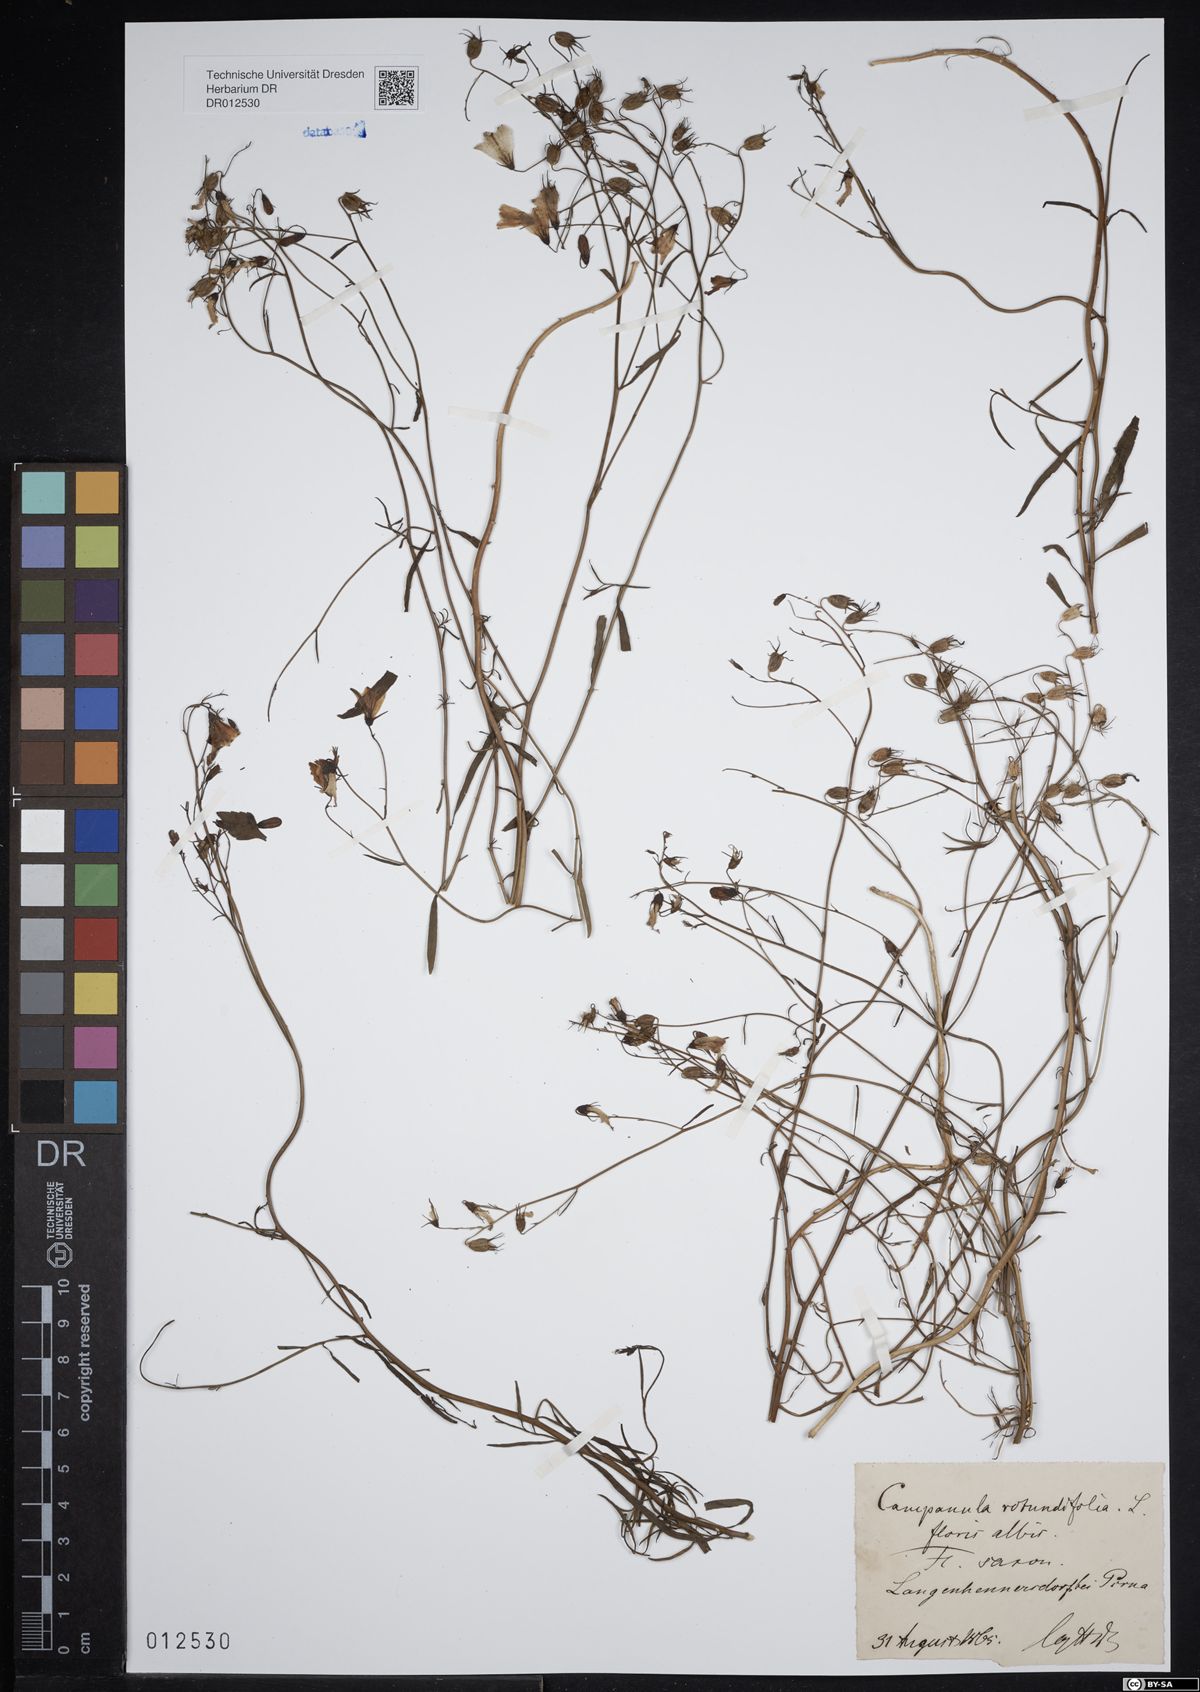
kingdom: Plantae
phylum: Tracheophyta
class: Magnoliopsida
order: Asterales
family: Campanulaceae
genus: Campanula
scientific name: Campanula rotundifolia
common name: Harebell
